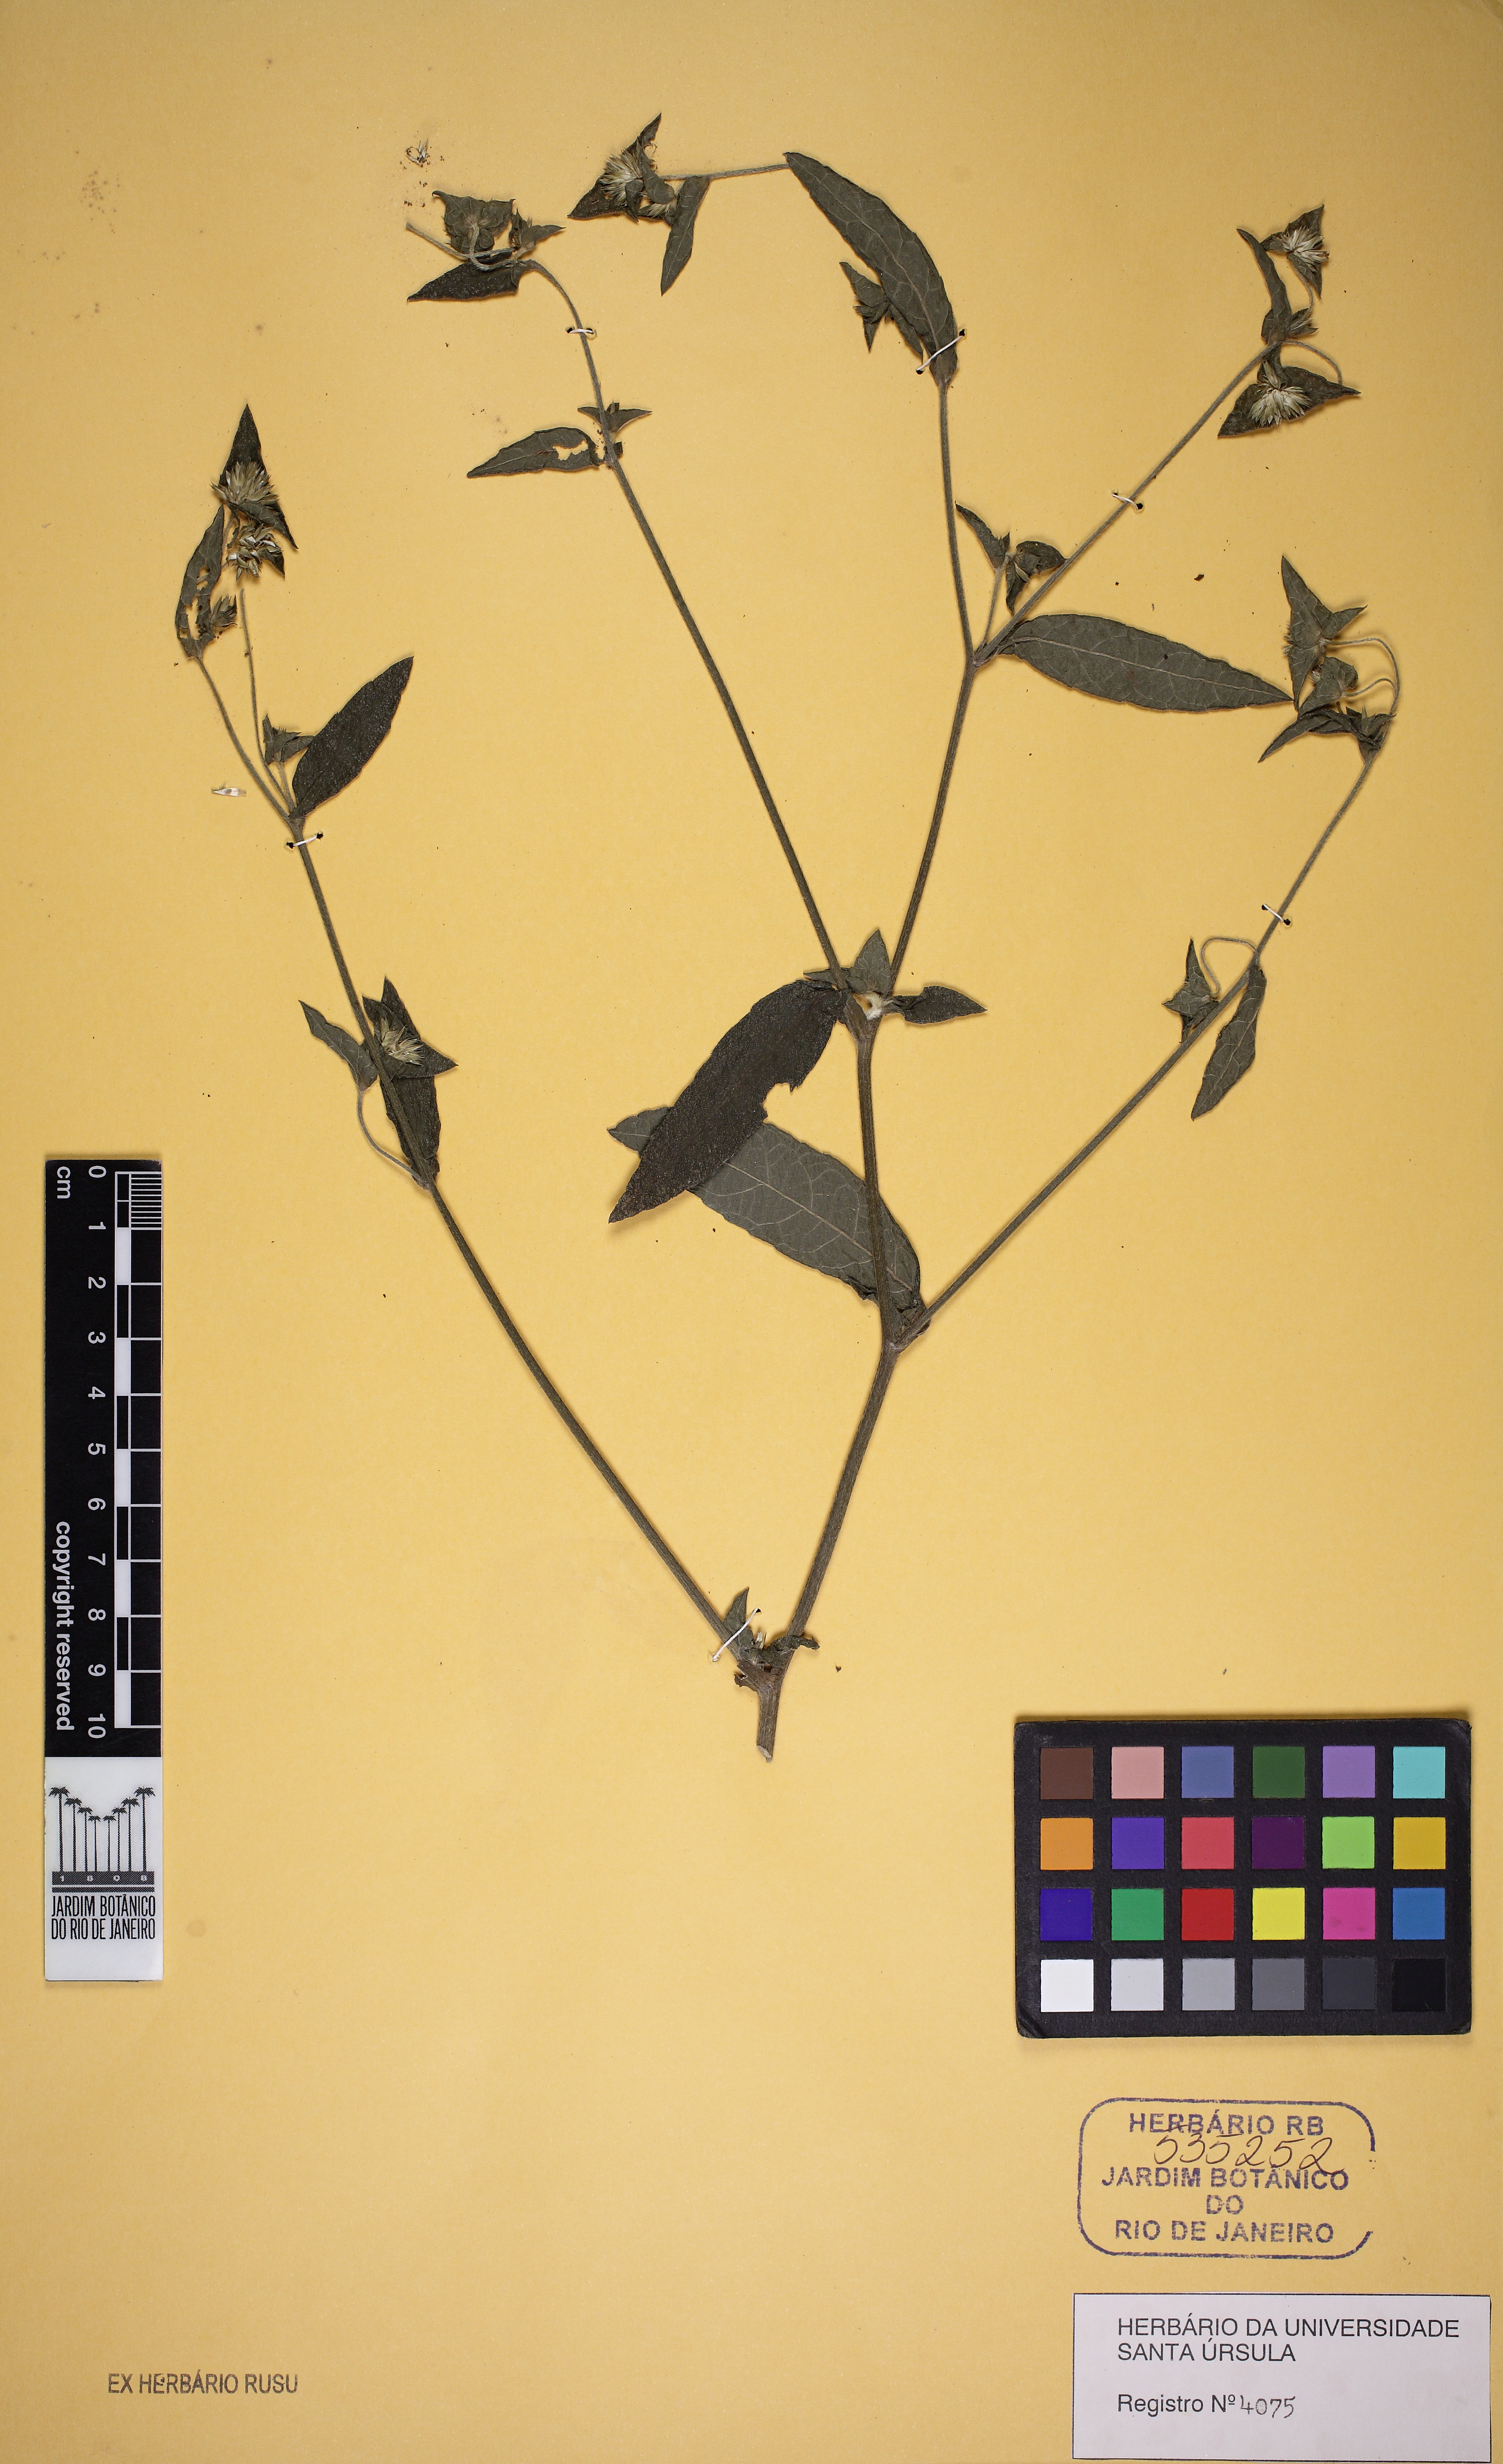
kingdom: Plantae
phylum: Tracheophyta
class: Magnoliopsida
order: Caryophyllales
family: Amaranthaceae
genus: Gomphrena
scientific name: Gomphrena
